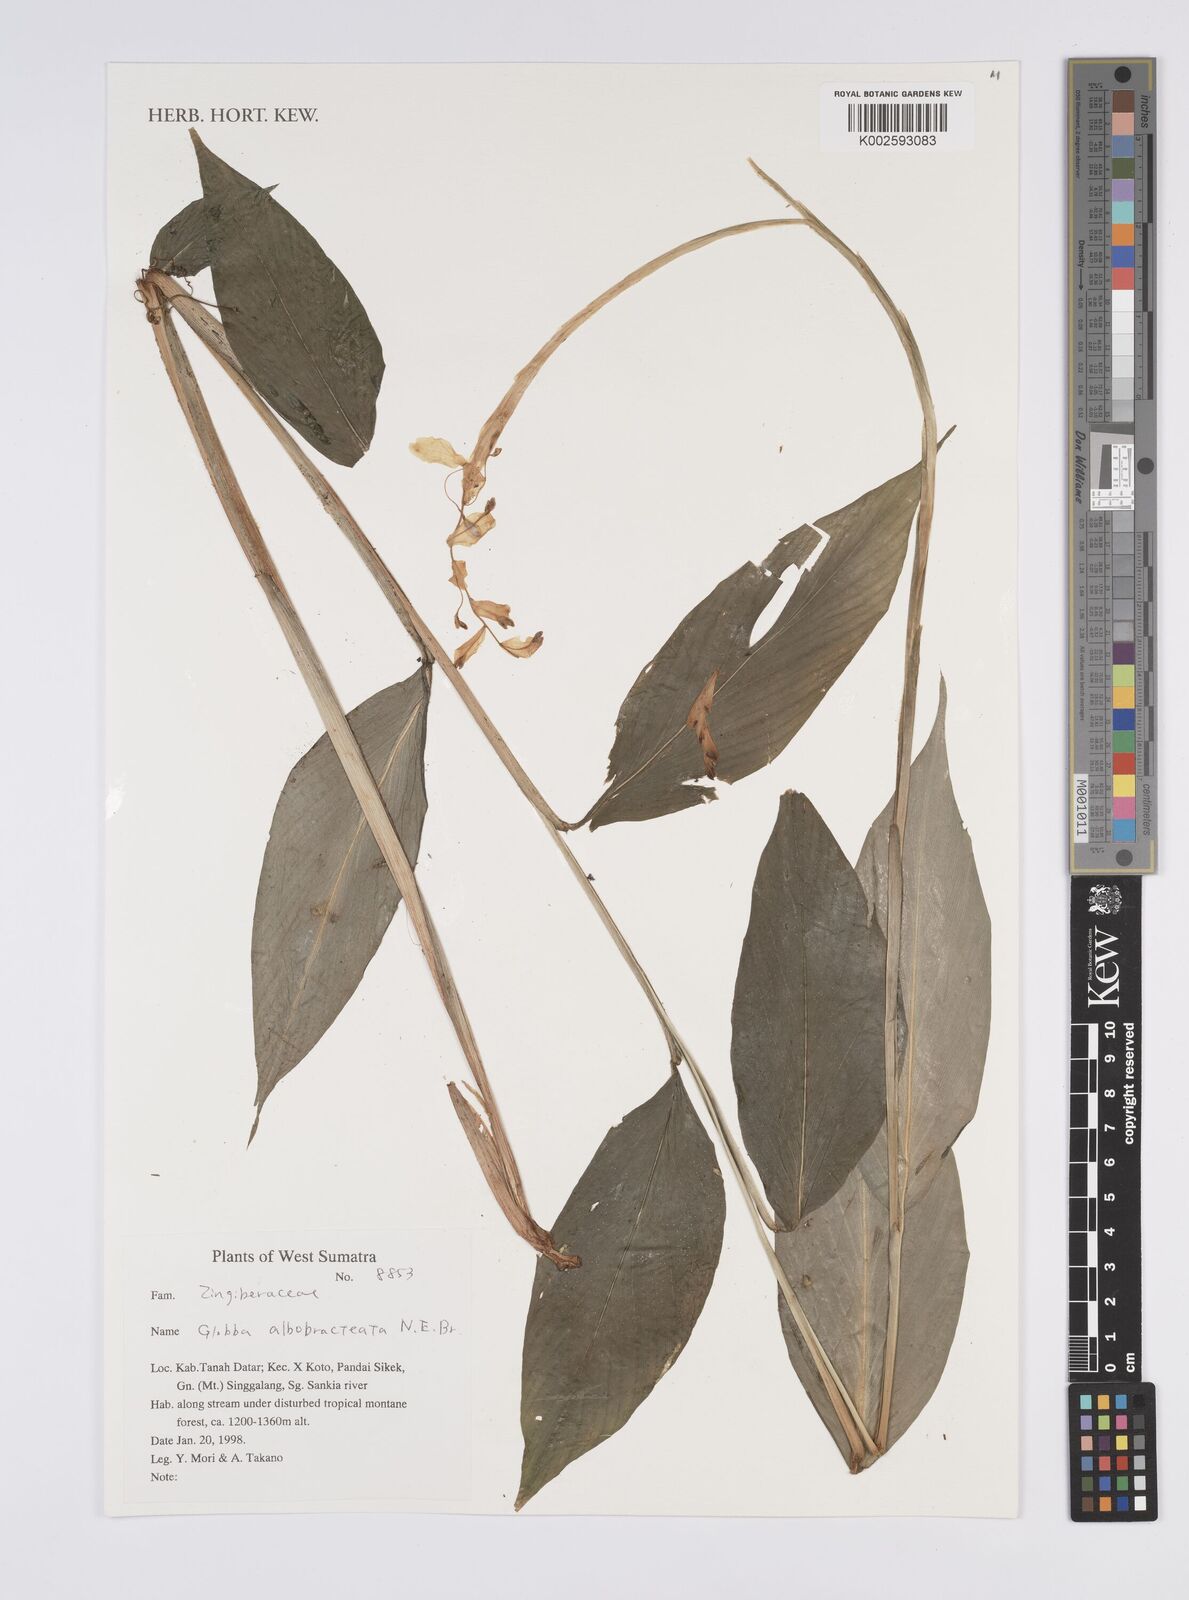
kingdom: Plantae
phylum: Tracheophyta
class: Liliopsida
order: Zingiberales
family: Zingiberaceae
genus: Globba
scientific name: Globba albobracteata
